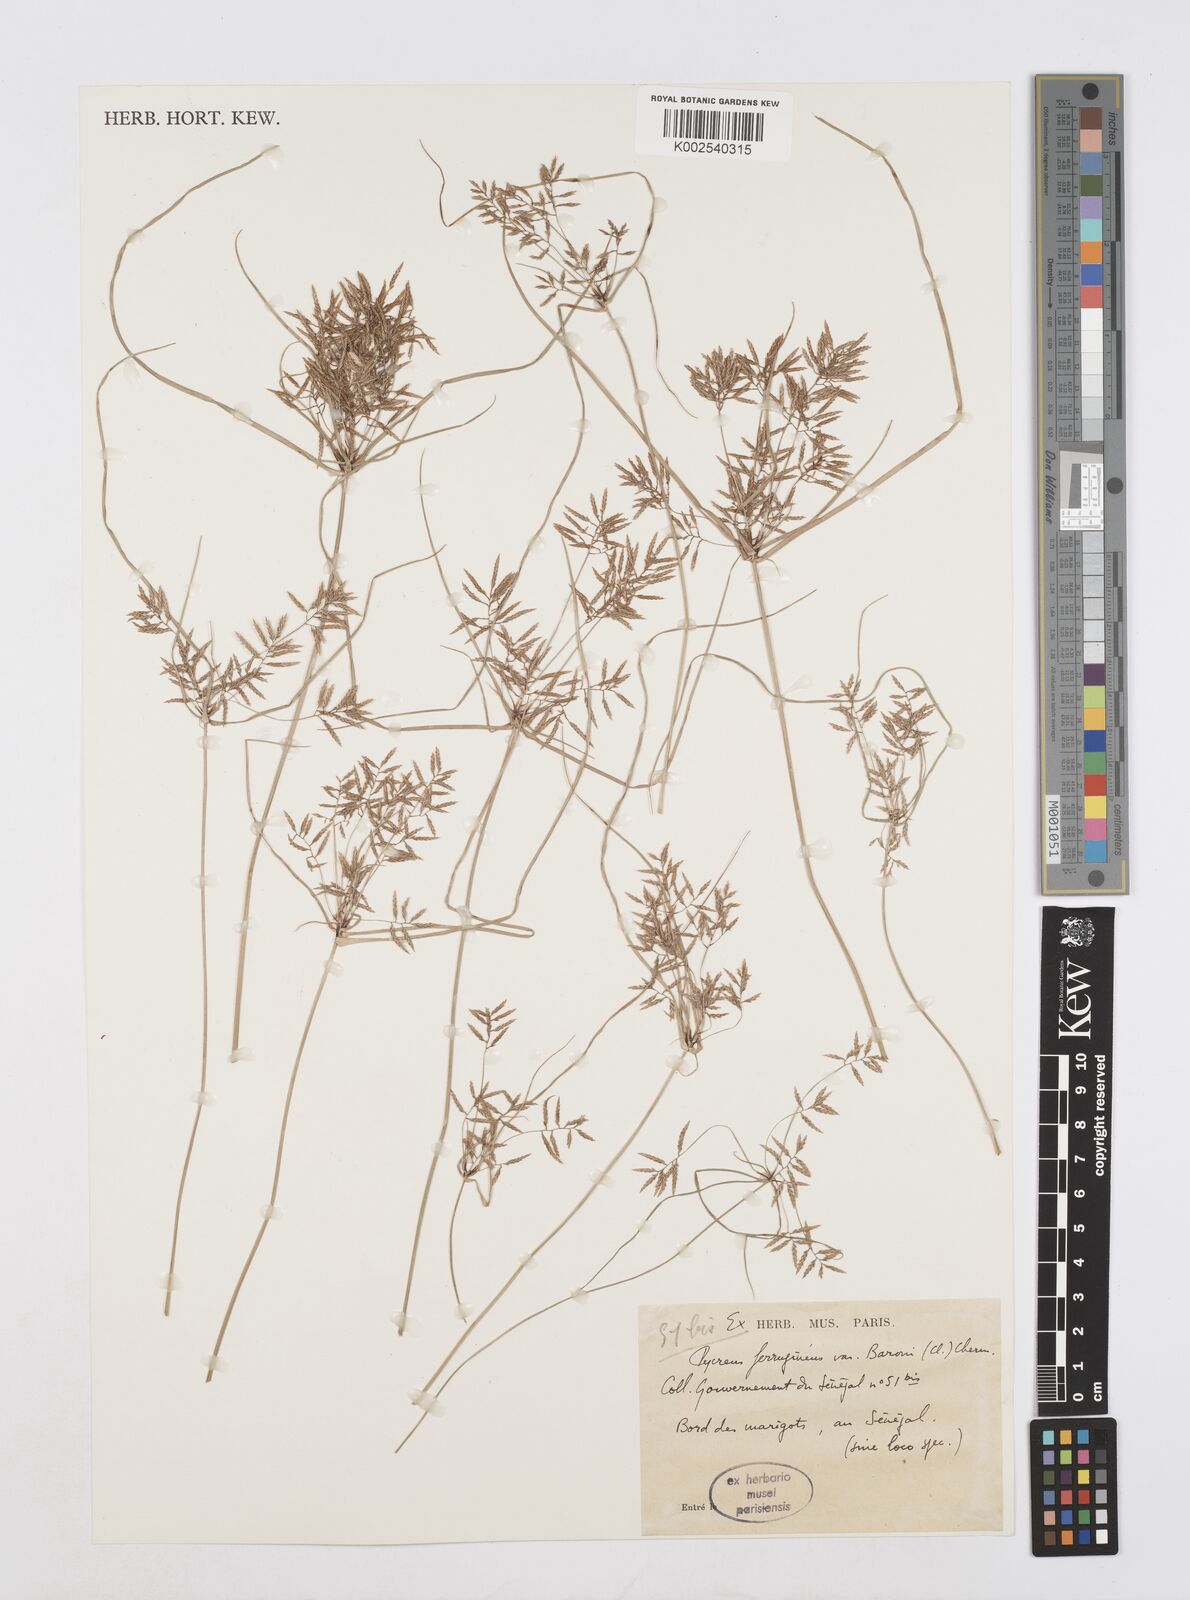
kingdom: Plantae
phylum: Tracheophyta
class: Liliopsida
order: Poales
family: Cyperaceae
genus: Cyperus
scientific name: Cyperus polystachyos
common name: Bunchy flat sedge
